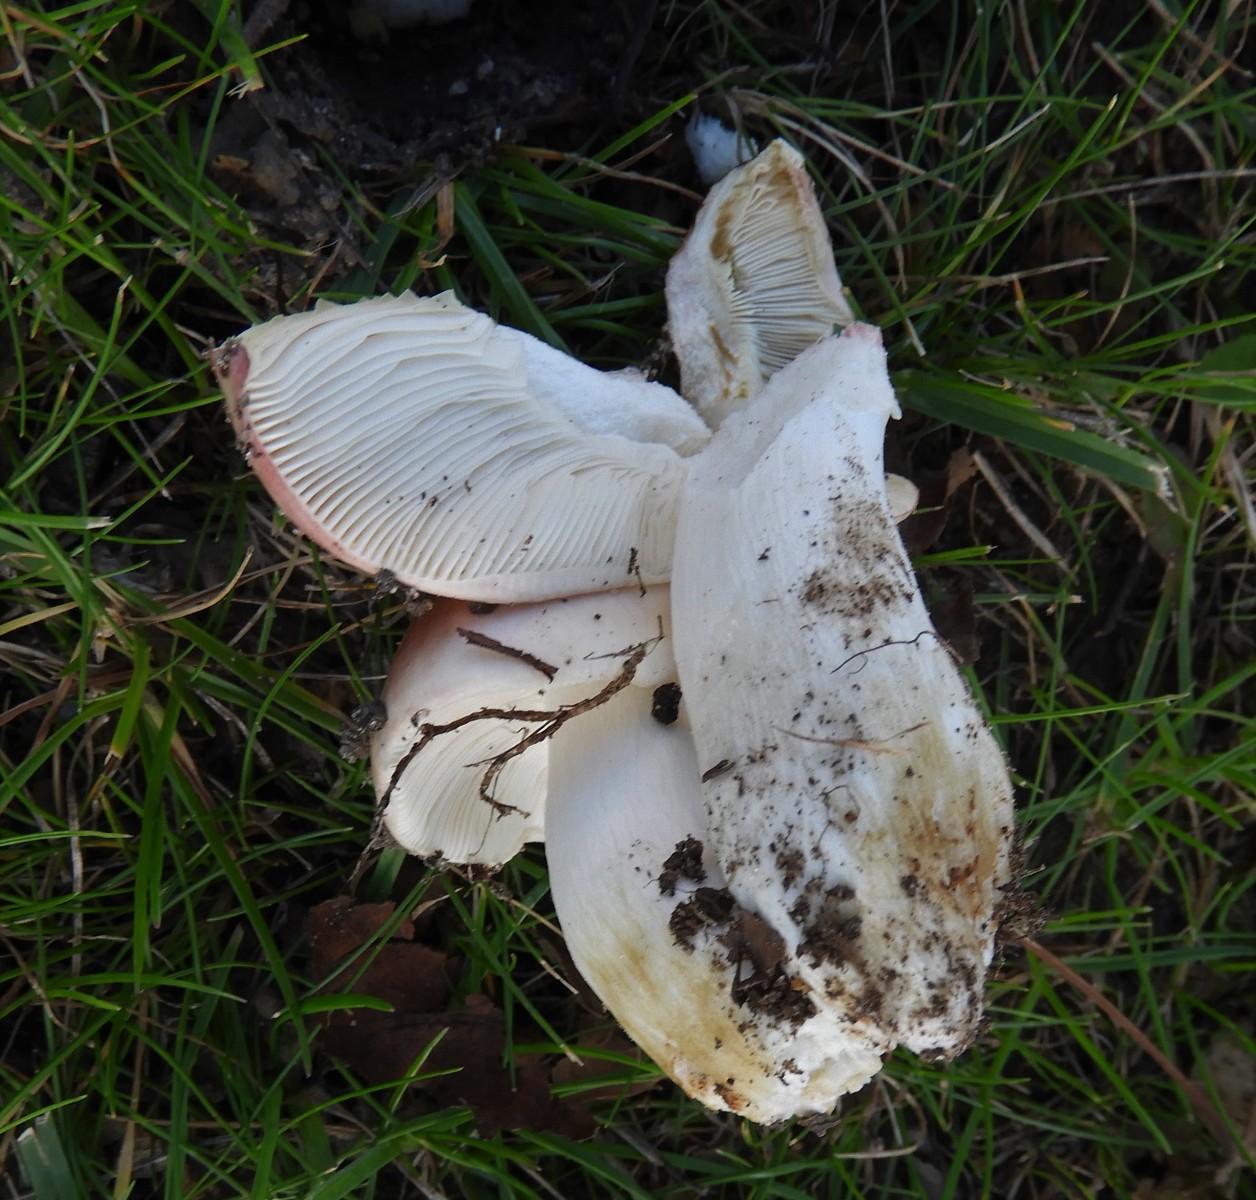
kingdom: Fungi
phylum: Basidiomycota
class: Agaricomycetes
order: Russulales
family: Russulaceae
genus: Russula
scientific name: Russula depallens
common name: falmende skørhat
